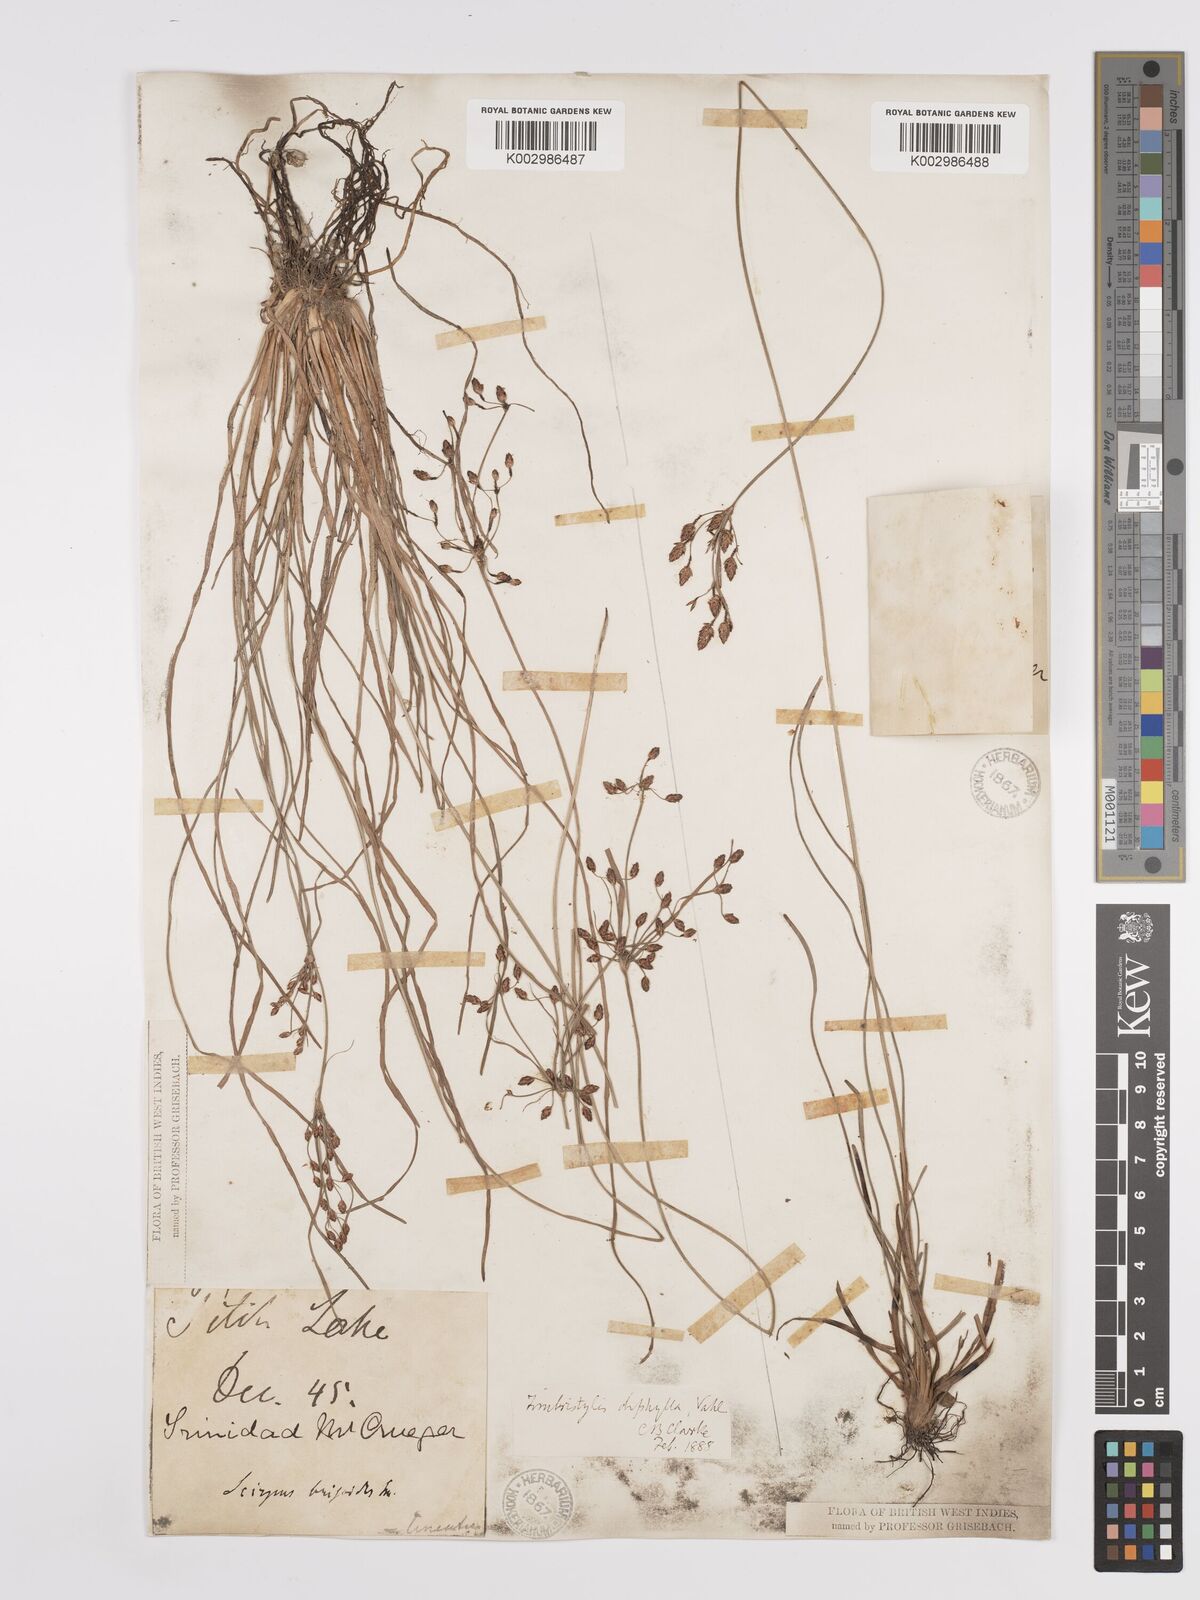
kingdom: Plantae
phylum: Tracheophyta
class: Liliopsida
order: Poales
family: Cyperaceae
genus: Fimbristylis
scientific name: Fimbristylis dichotoma
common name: Forked fimbry
